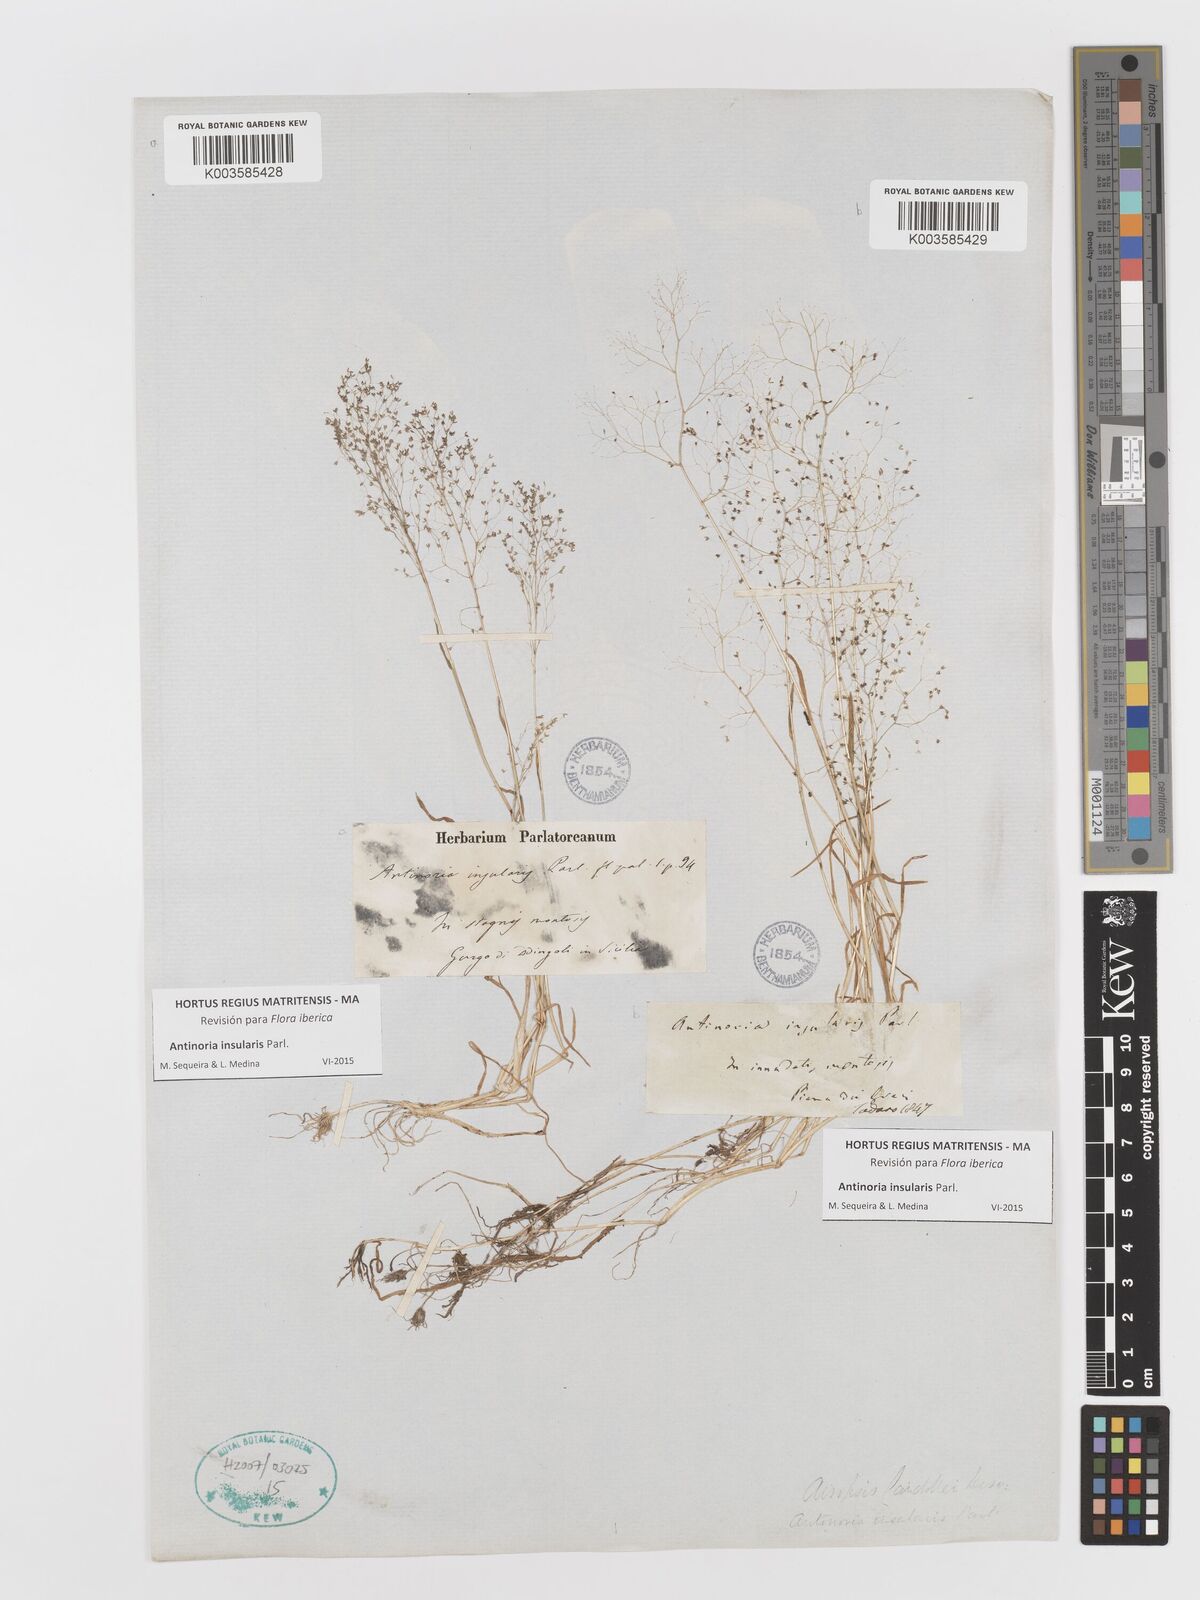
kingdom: Plantae
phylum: Tracheophyta
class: Liliopsida
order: Poales
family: Poaceae
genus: Antinoria
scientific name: Antinoria insularis
